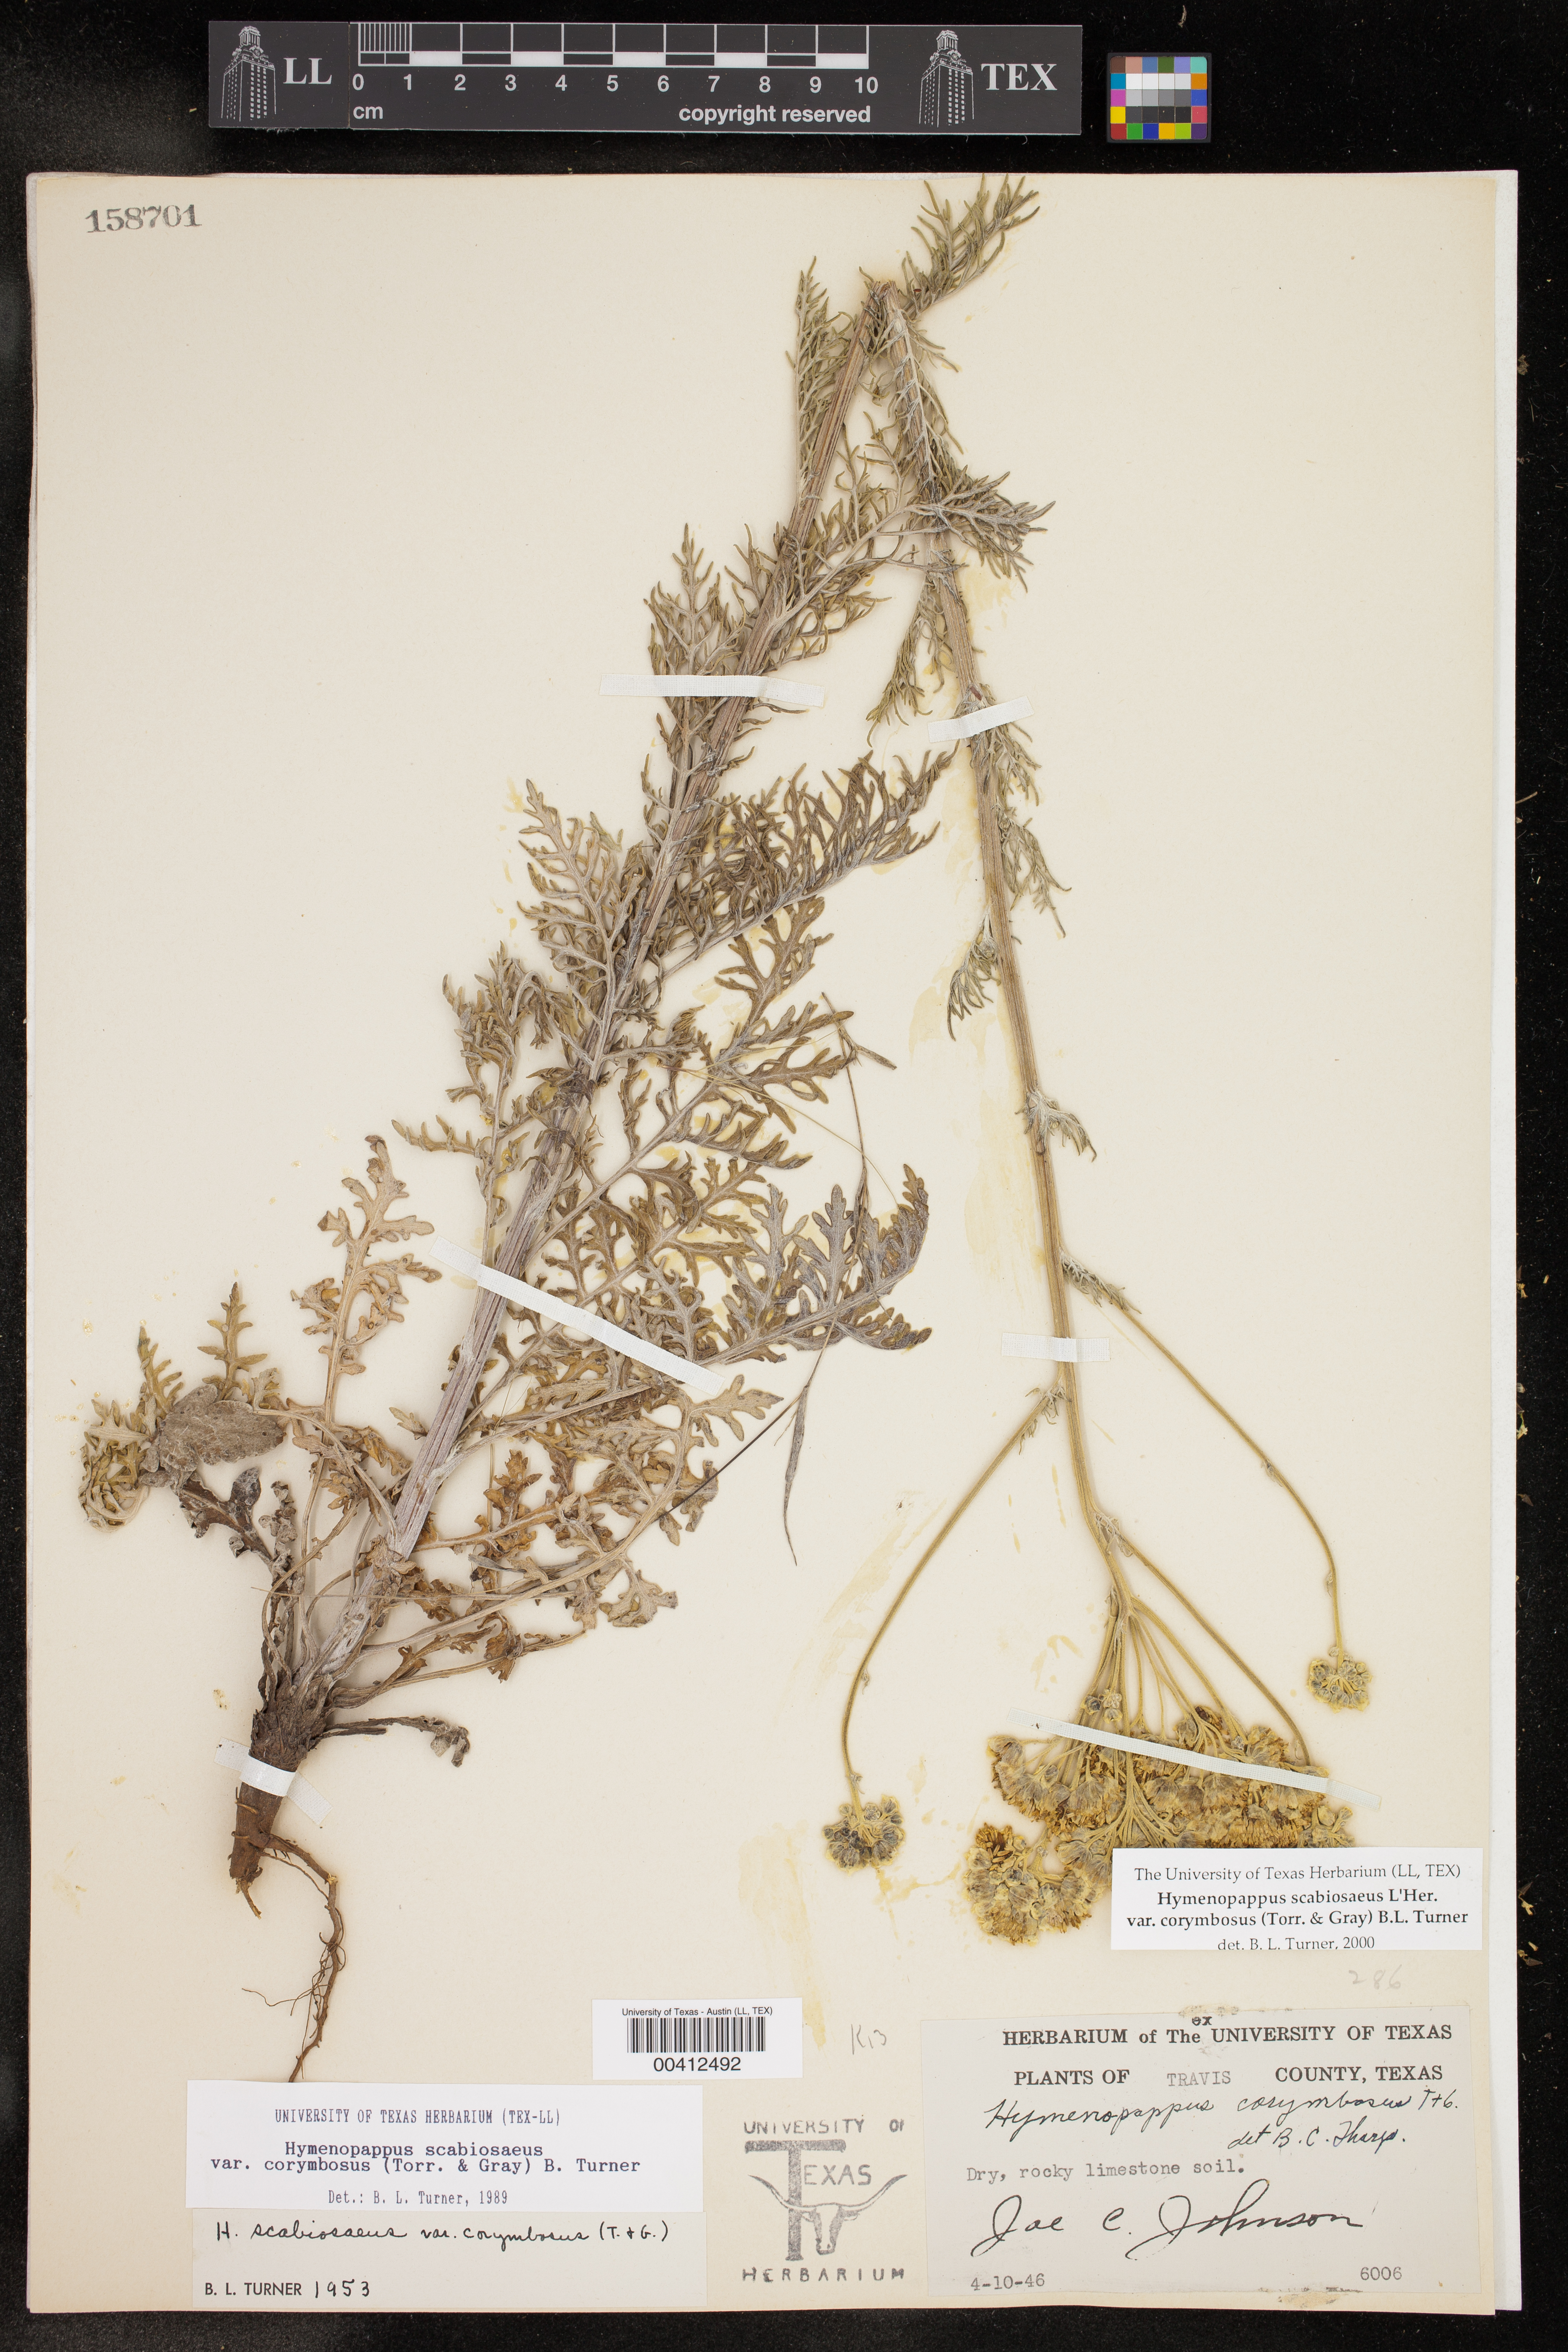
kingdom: Plantae
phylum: Tracheophyta
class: Magnoliopsida
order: Asterales
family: Asteraceae
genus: Hymenopappus
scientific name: Hymenopappus scabiosaeus
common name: Carolina woollywhite
